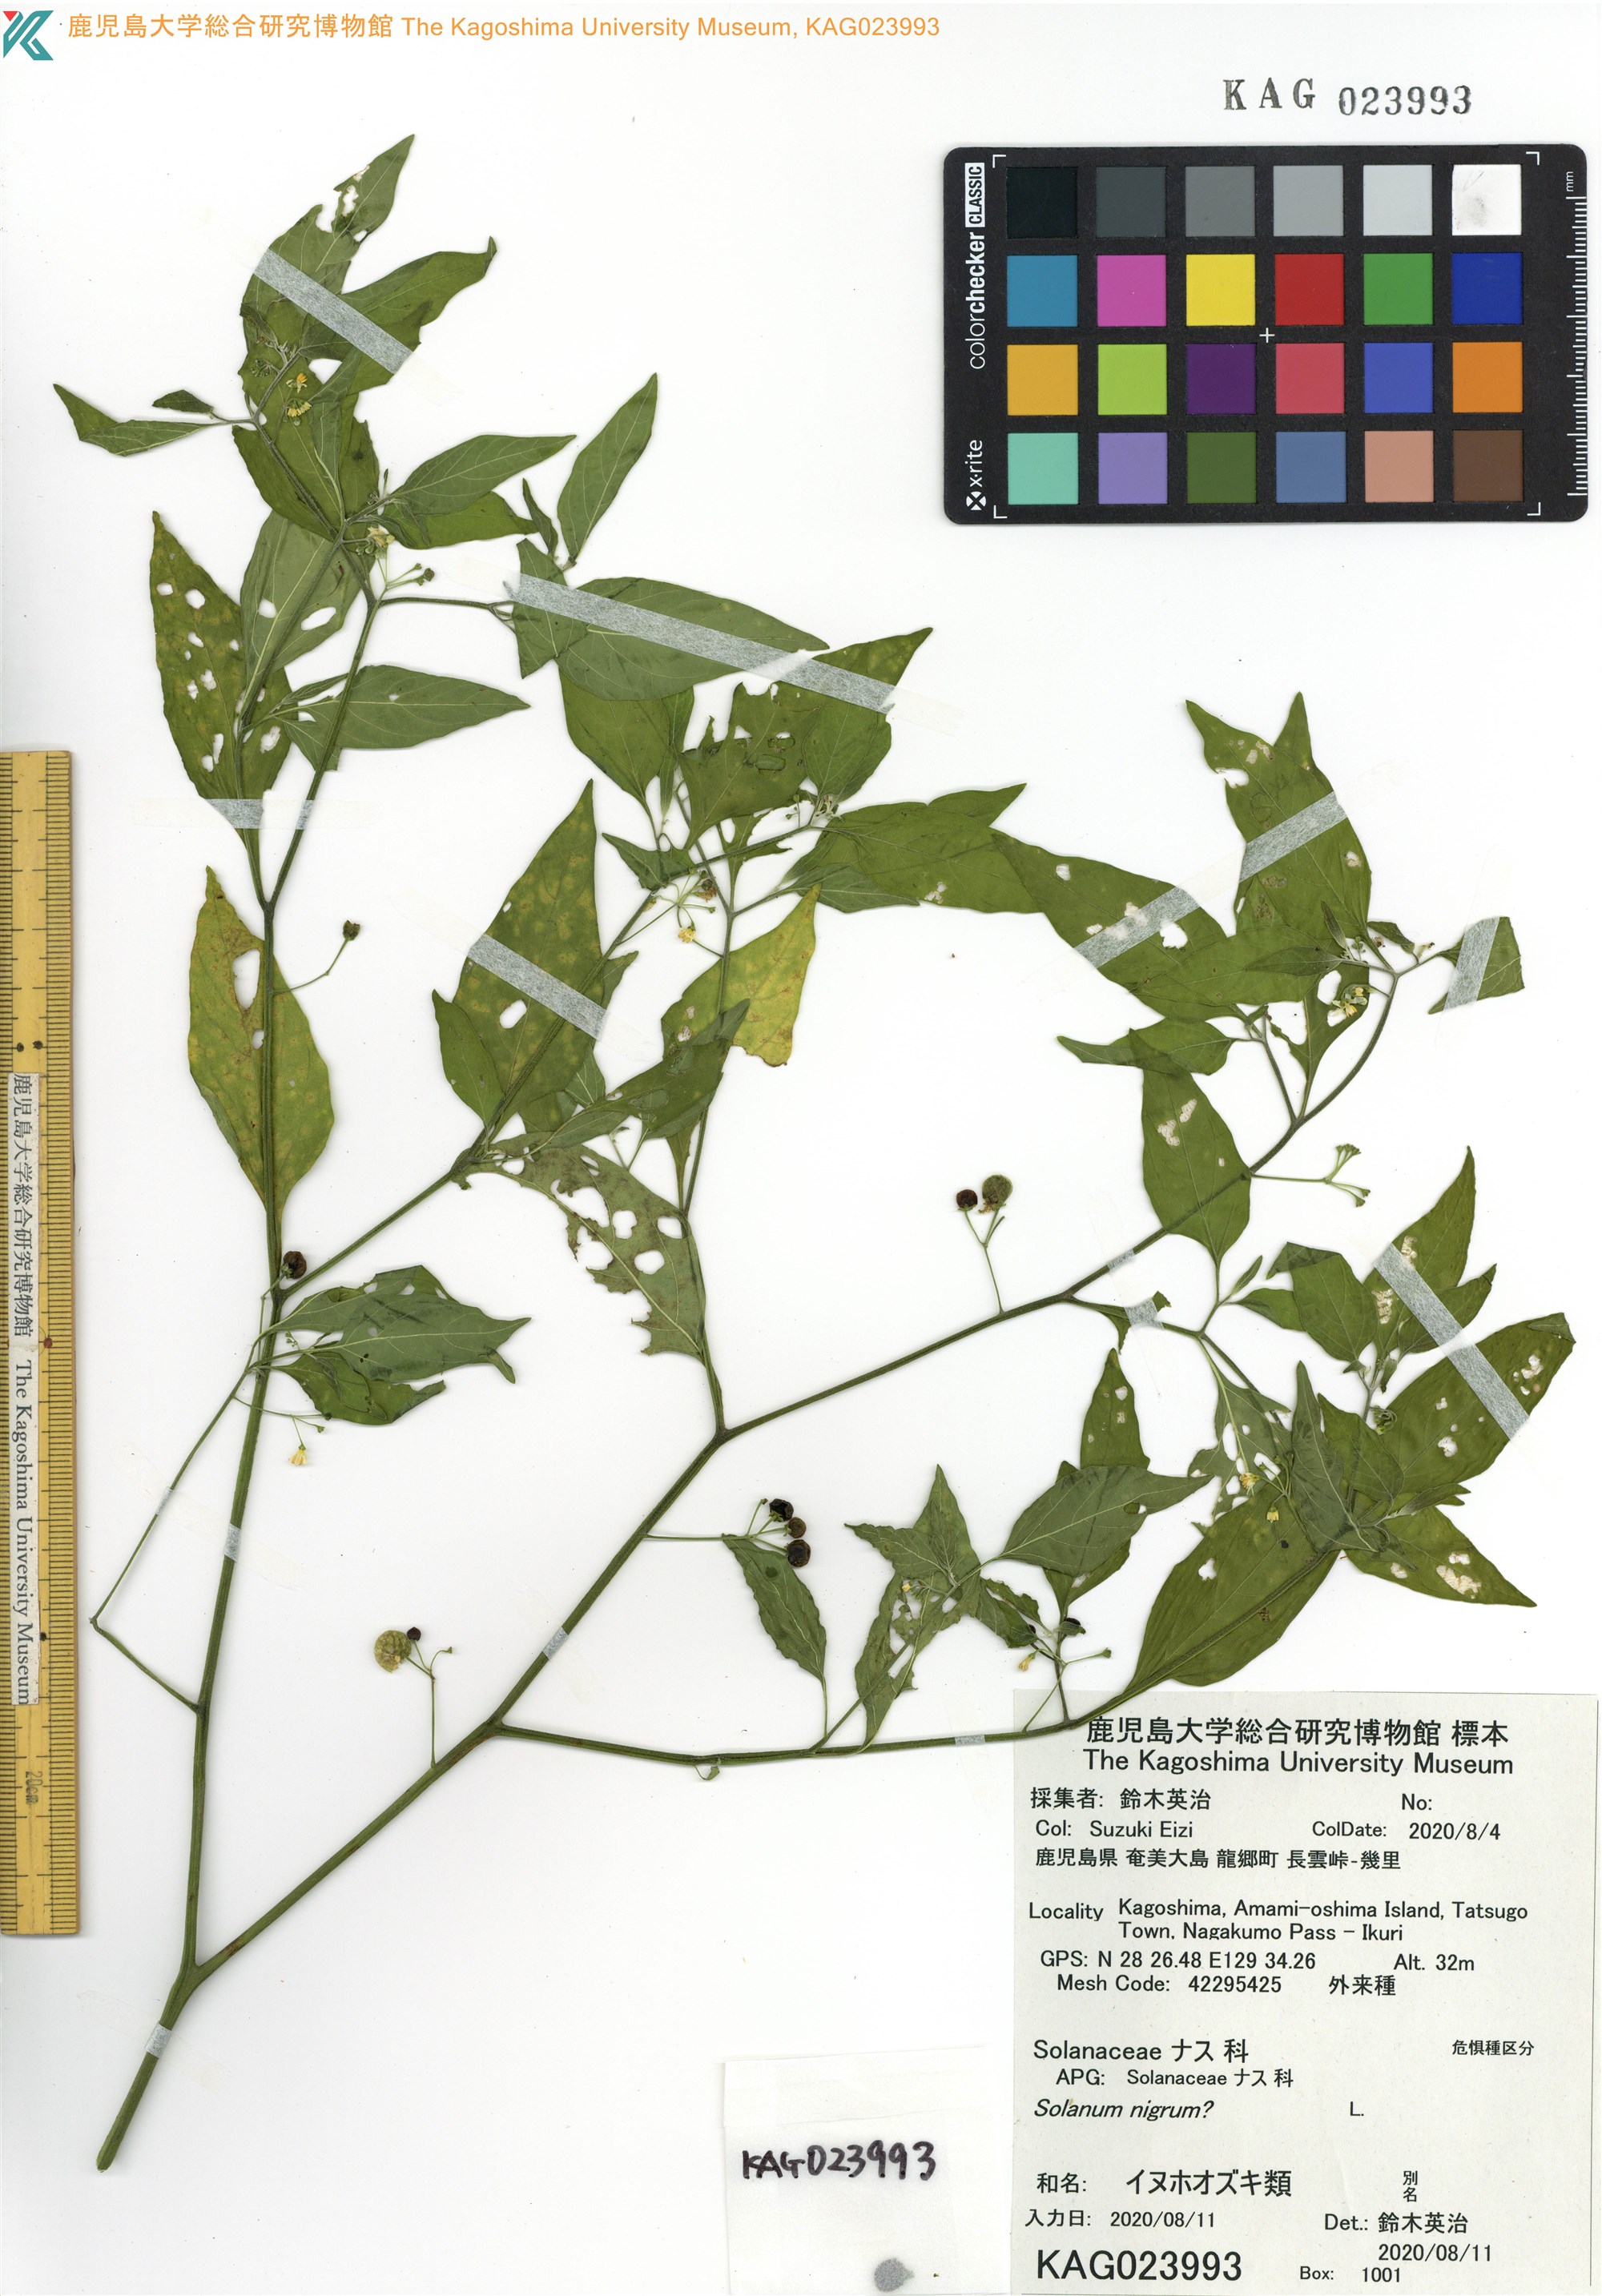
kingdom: Plantae
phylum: Tracheophyta
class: Magnoliopsida
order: Solanales
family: Solanaceae
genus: Solanum
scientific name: Solanum nigrum
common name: Black nightshade
